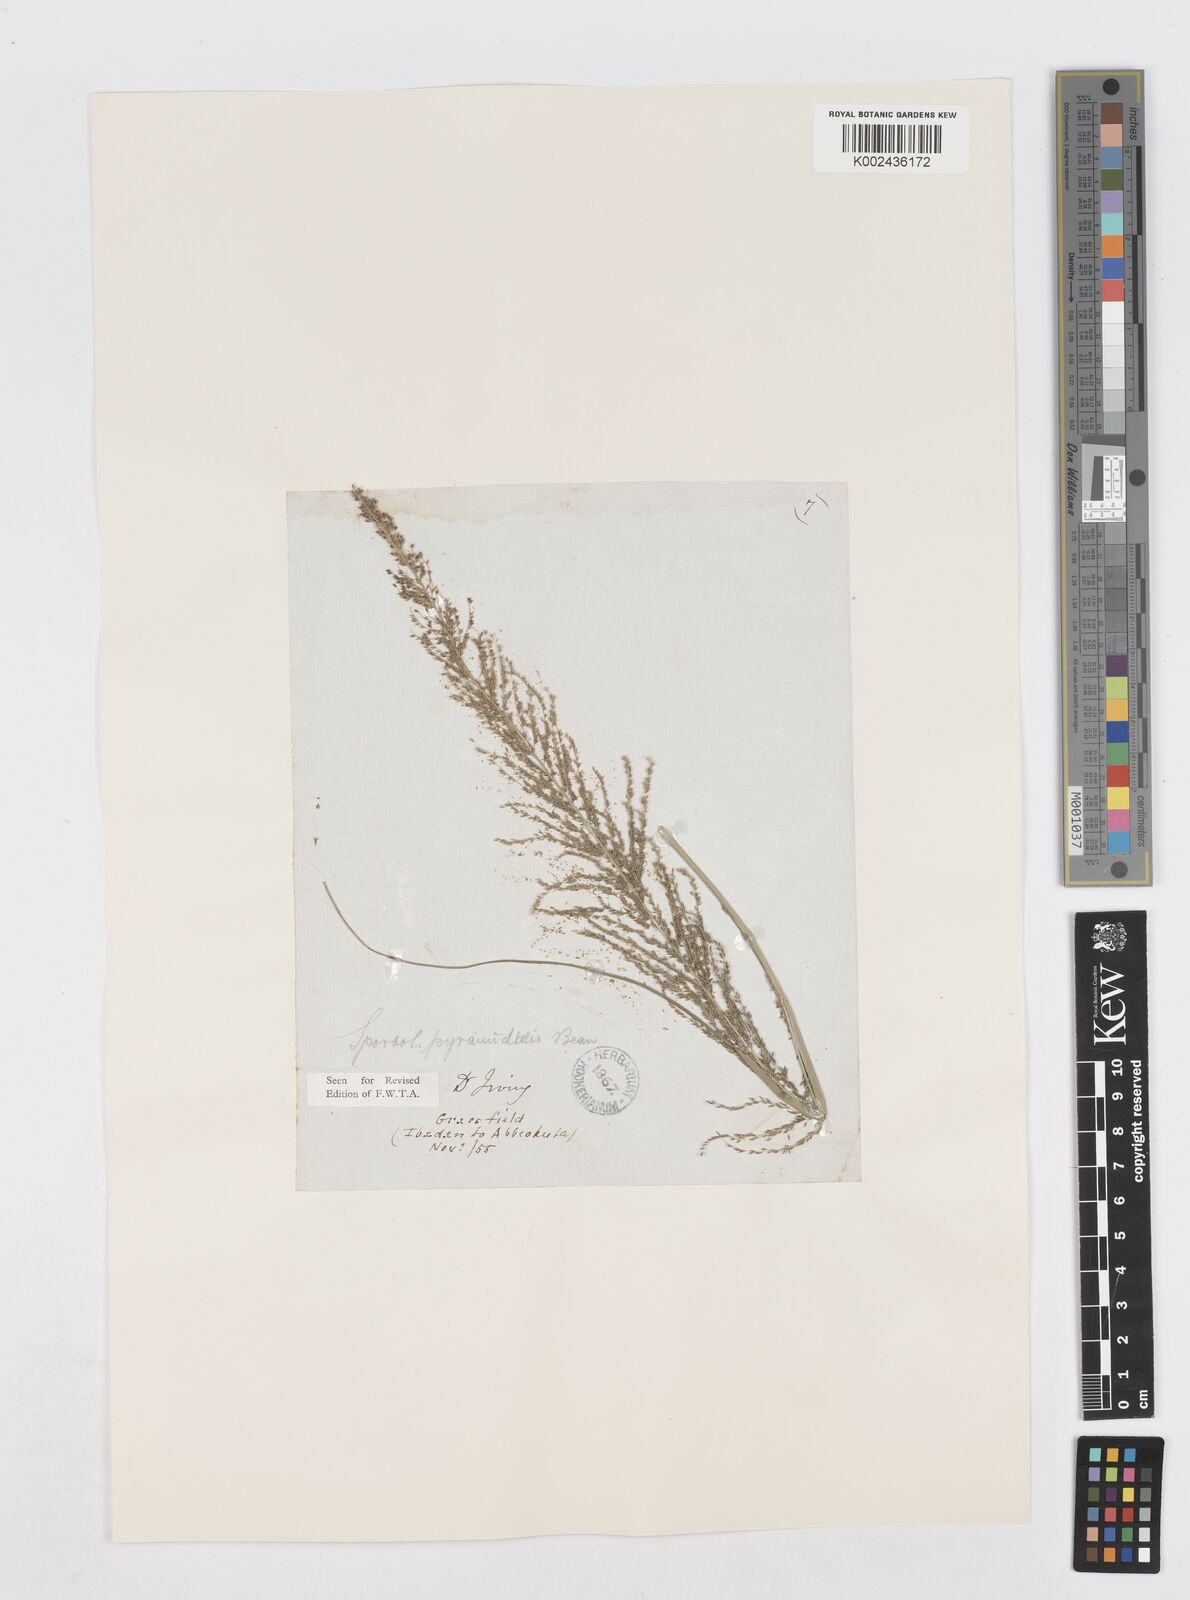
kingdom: Plantae
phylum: Tracheophyta
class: Liliopsida
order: Poales
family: Poaceae
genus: Sporobolus
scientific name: Sporobolus pyramidalis
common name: West indian dropseed
